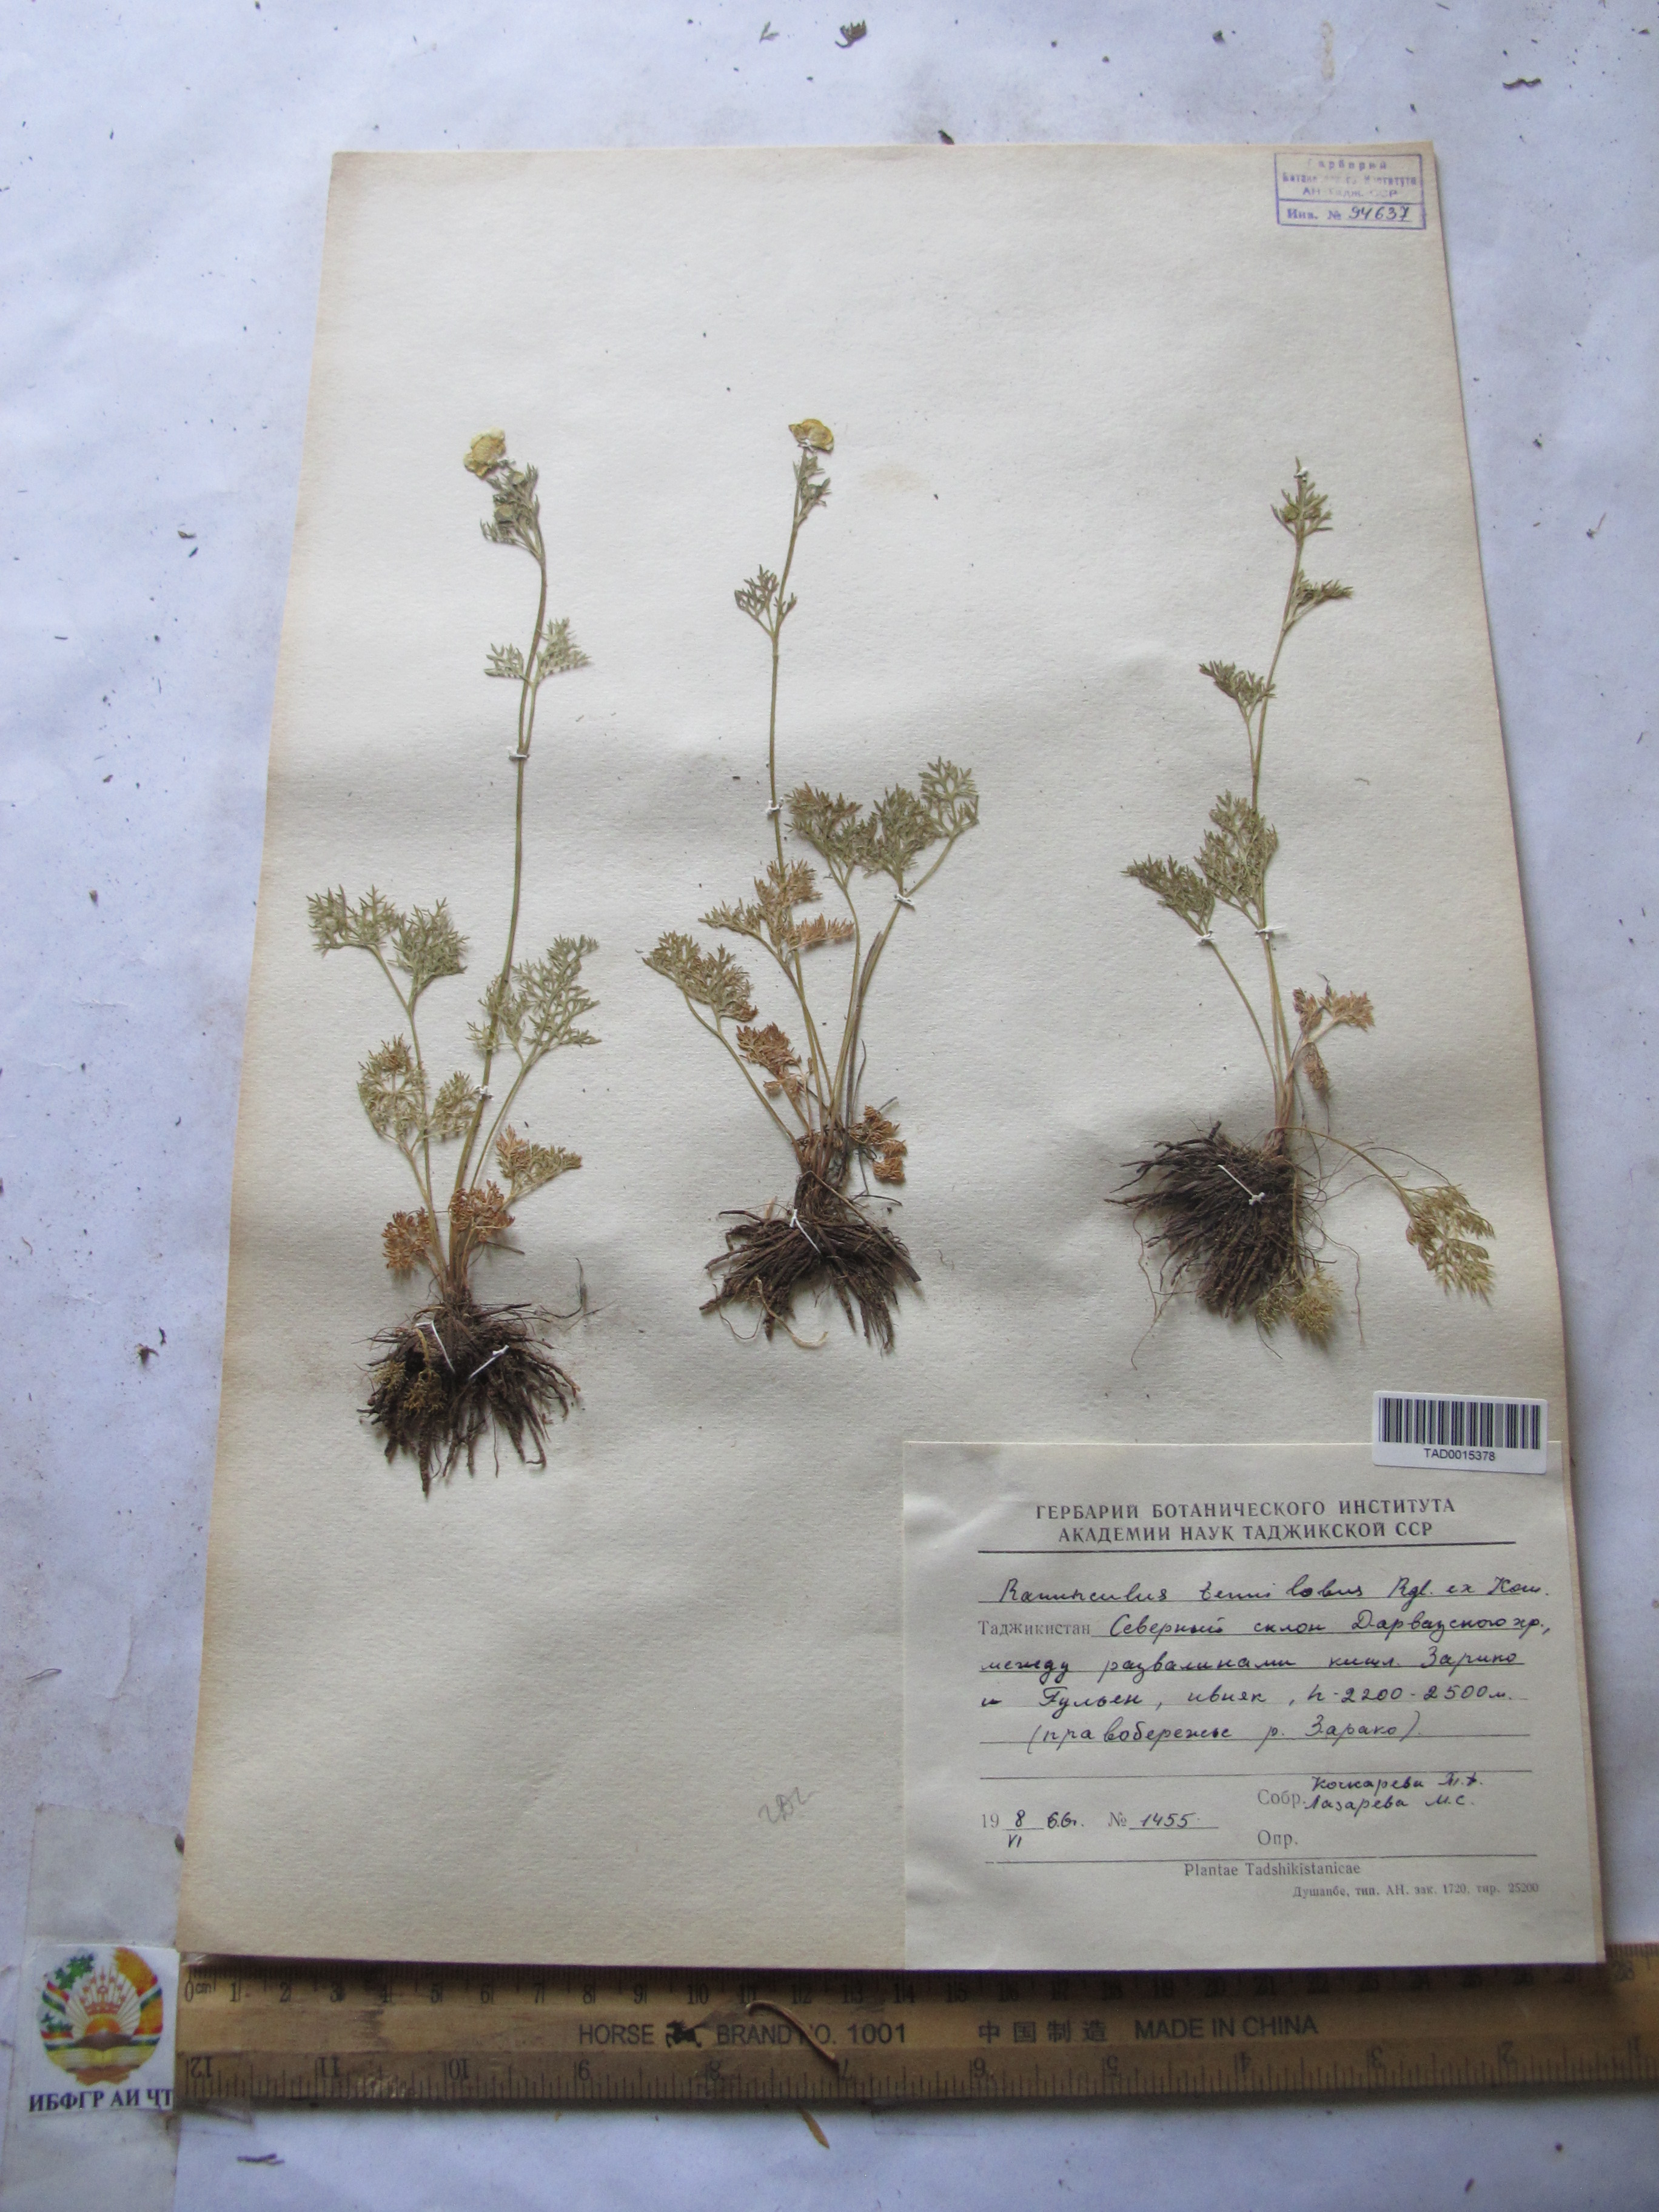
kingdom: Plantae
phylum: Tracheophyta
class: Magnoliopsida
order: Ranunculales
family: Ranunculaceae
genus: Ranunculus
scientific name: Ranunculus tenuilobus
